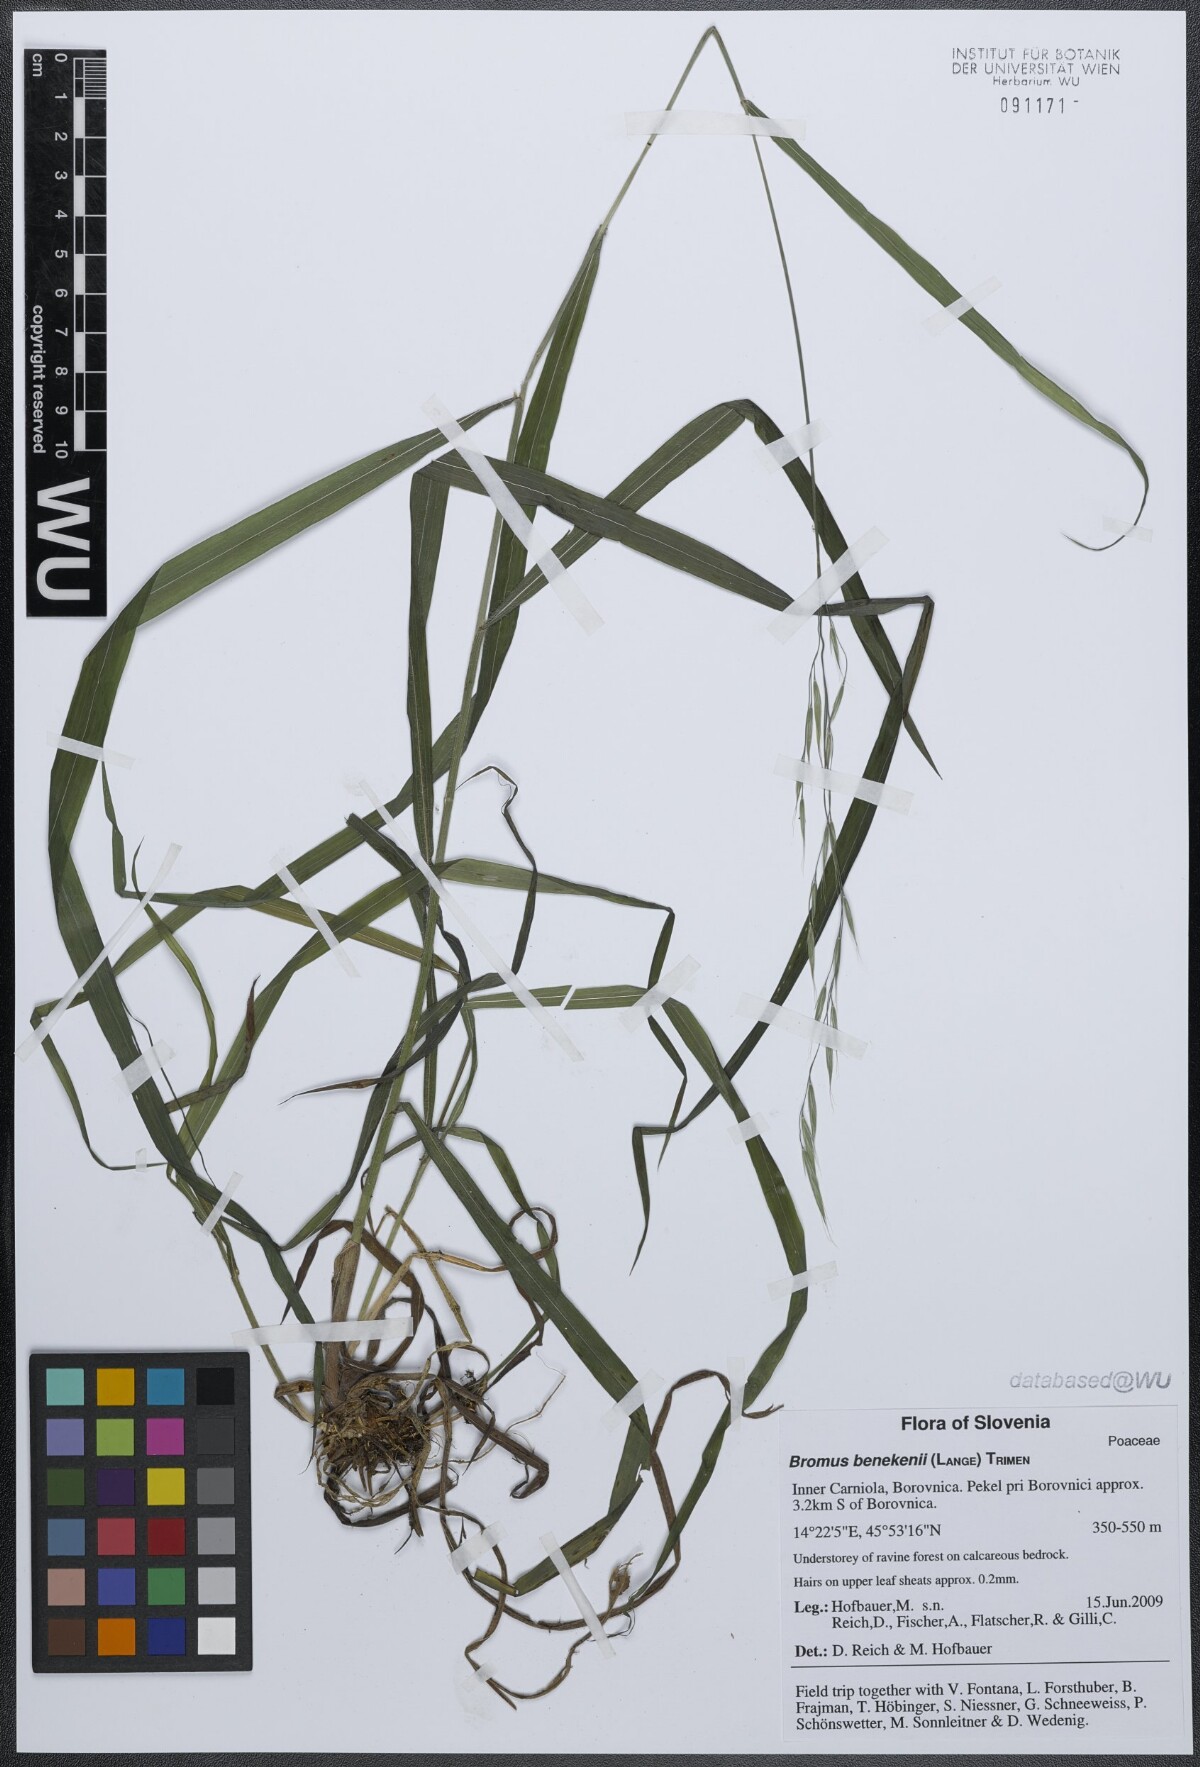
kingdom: Plantae
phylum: Tracheophyta
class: Liliopsida
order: Poales
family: Poaceae
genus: Bromus
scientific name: Bromus benekenii
